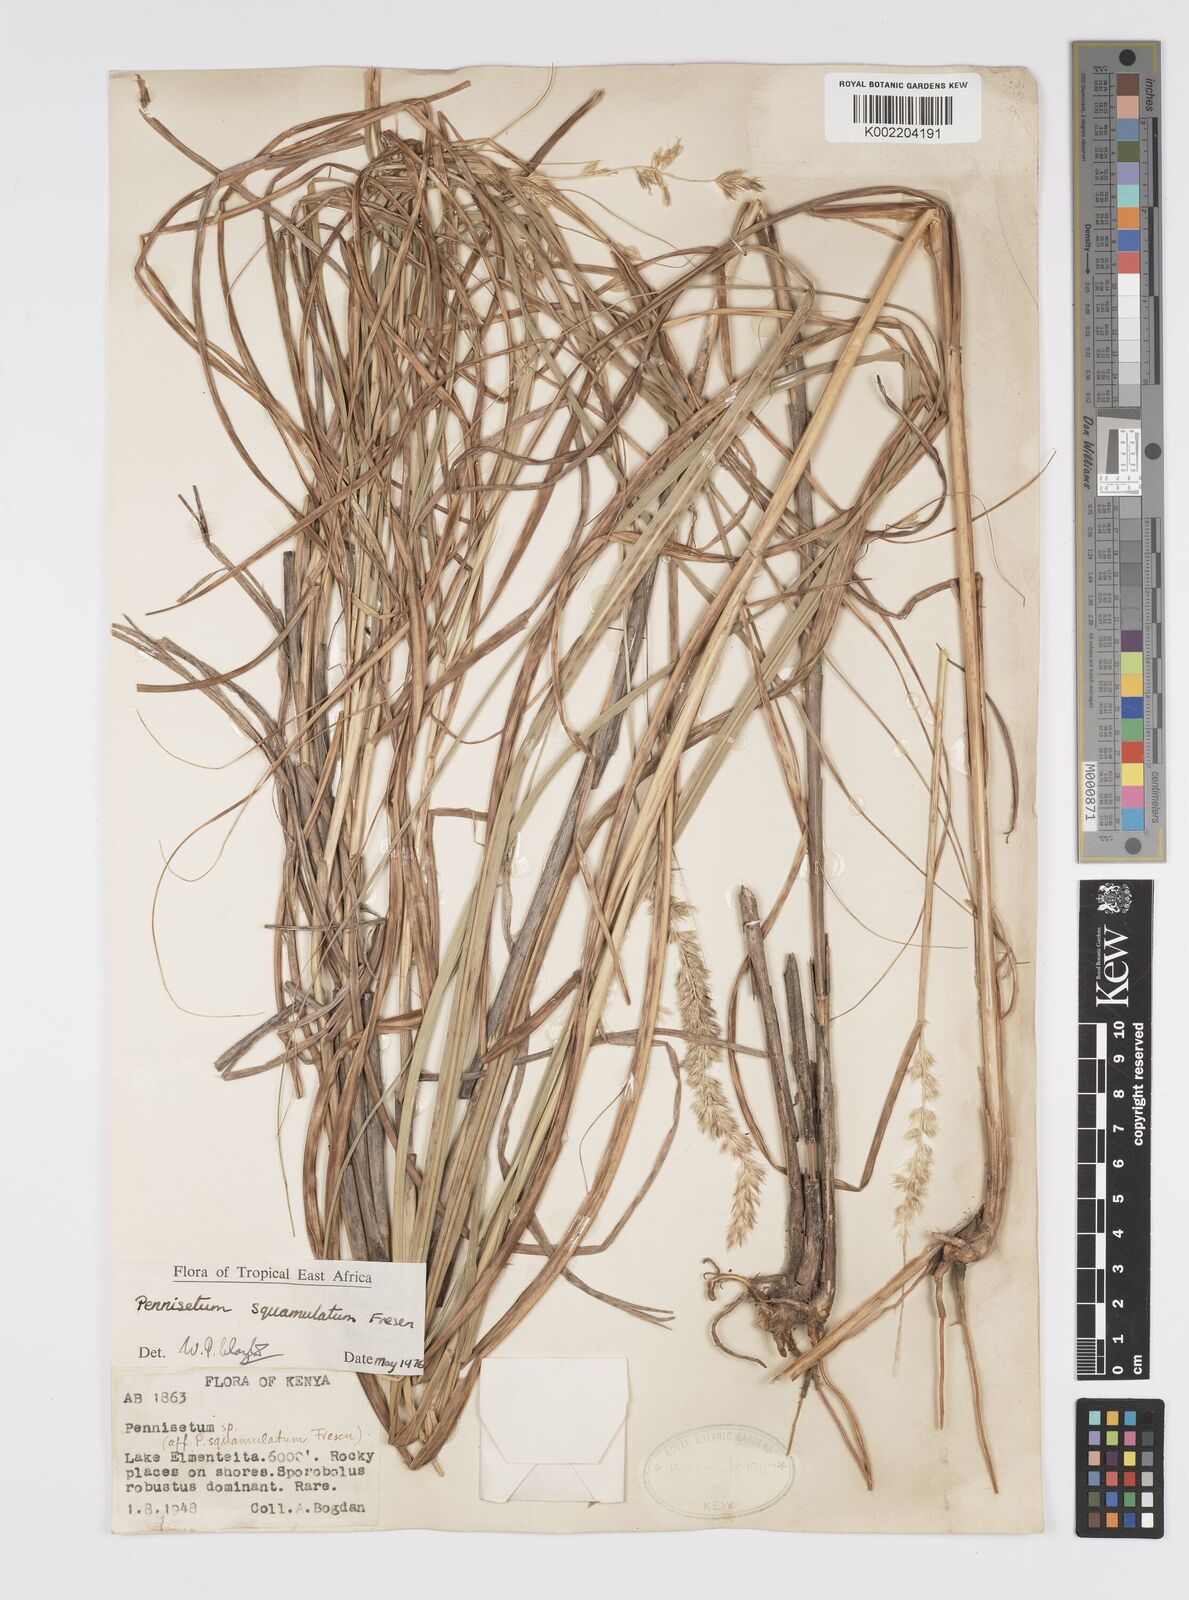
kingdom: Plantae
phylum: Tracheophyta
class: Liliopsida
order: Poales
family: Poaceae
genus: Cenchrus
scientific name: Cenchrus squamulatus
